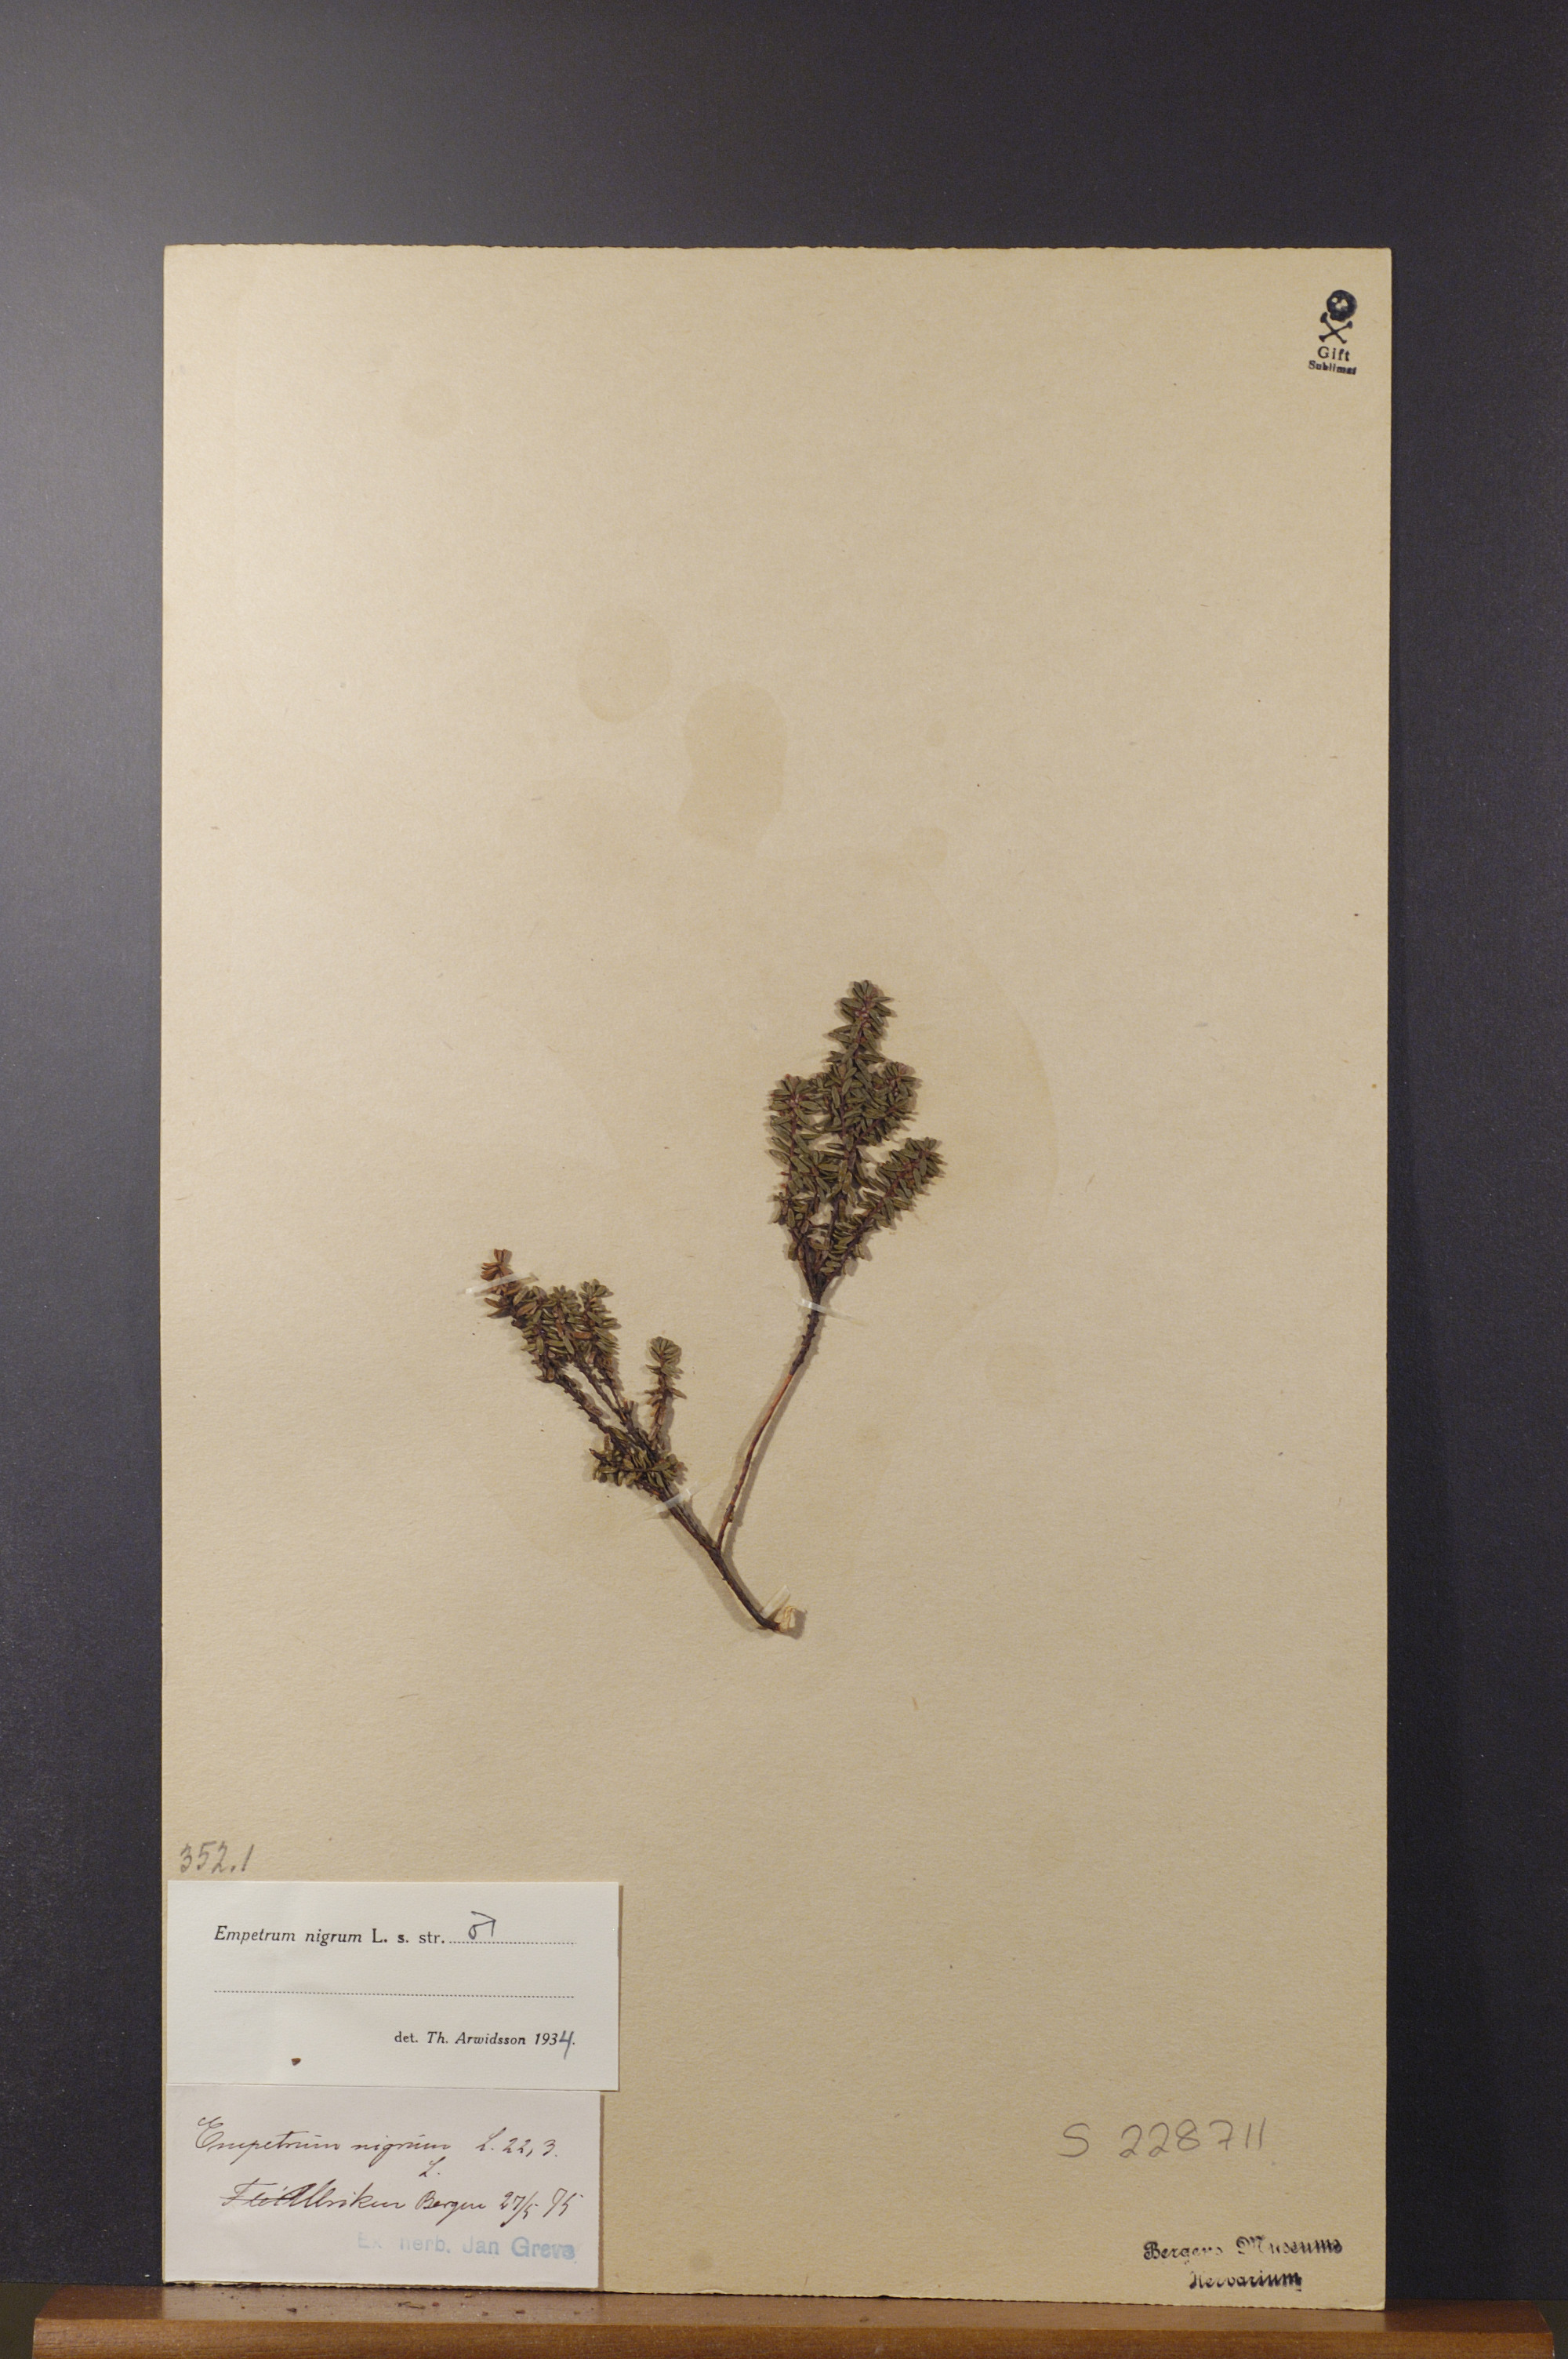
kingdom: Plantae
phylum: Tracheophyta
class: Magnoliopsida
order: Ericales
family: Ericaceae
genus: Empetrum
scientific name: Empetrum nigrum
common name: Black crowberry
